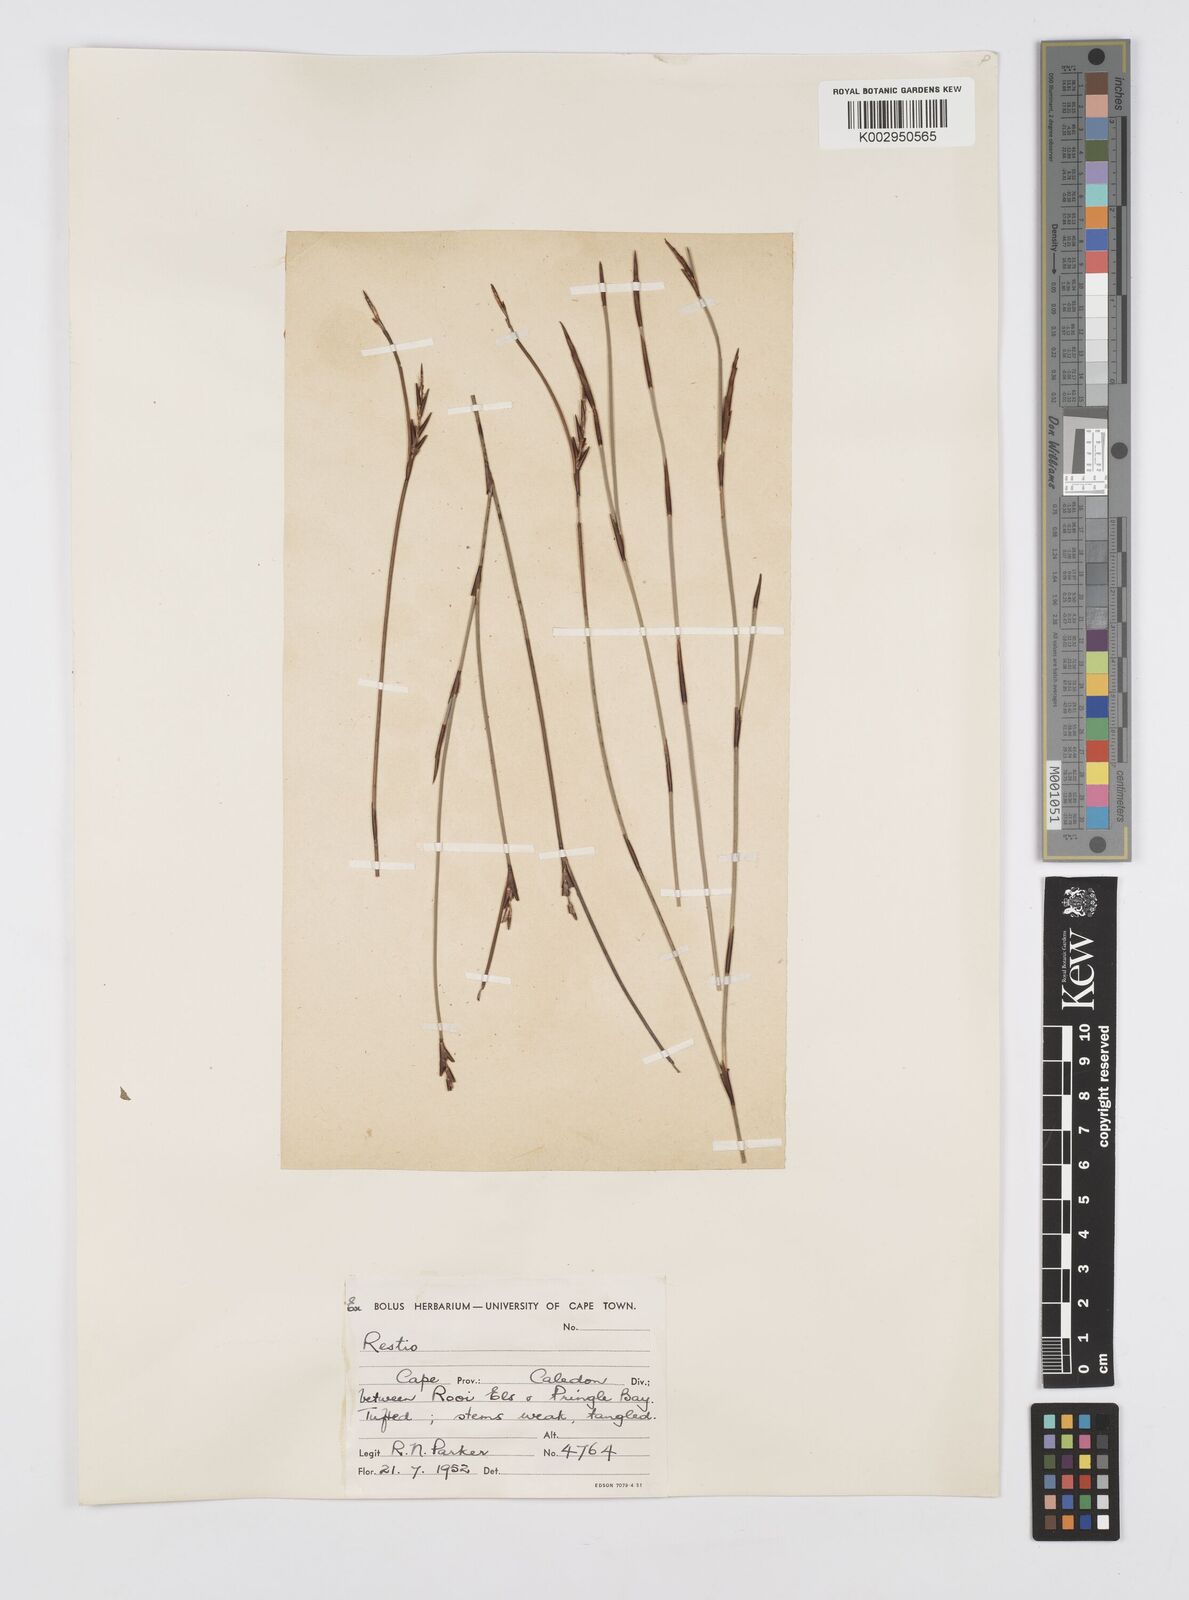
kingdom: Plantae
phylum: Tracheophyta
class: Liliopsida
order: Poales
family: Restionaceae
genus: Soroveta
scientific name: Soroveta ambigua
